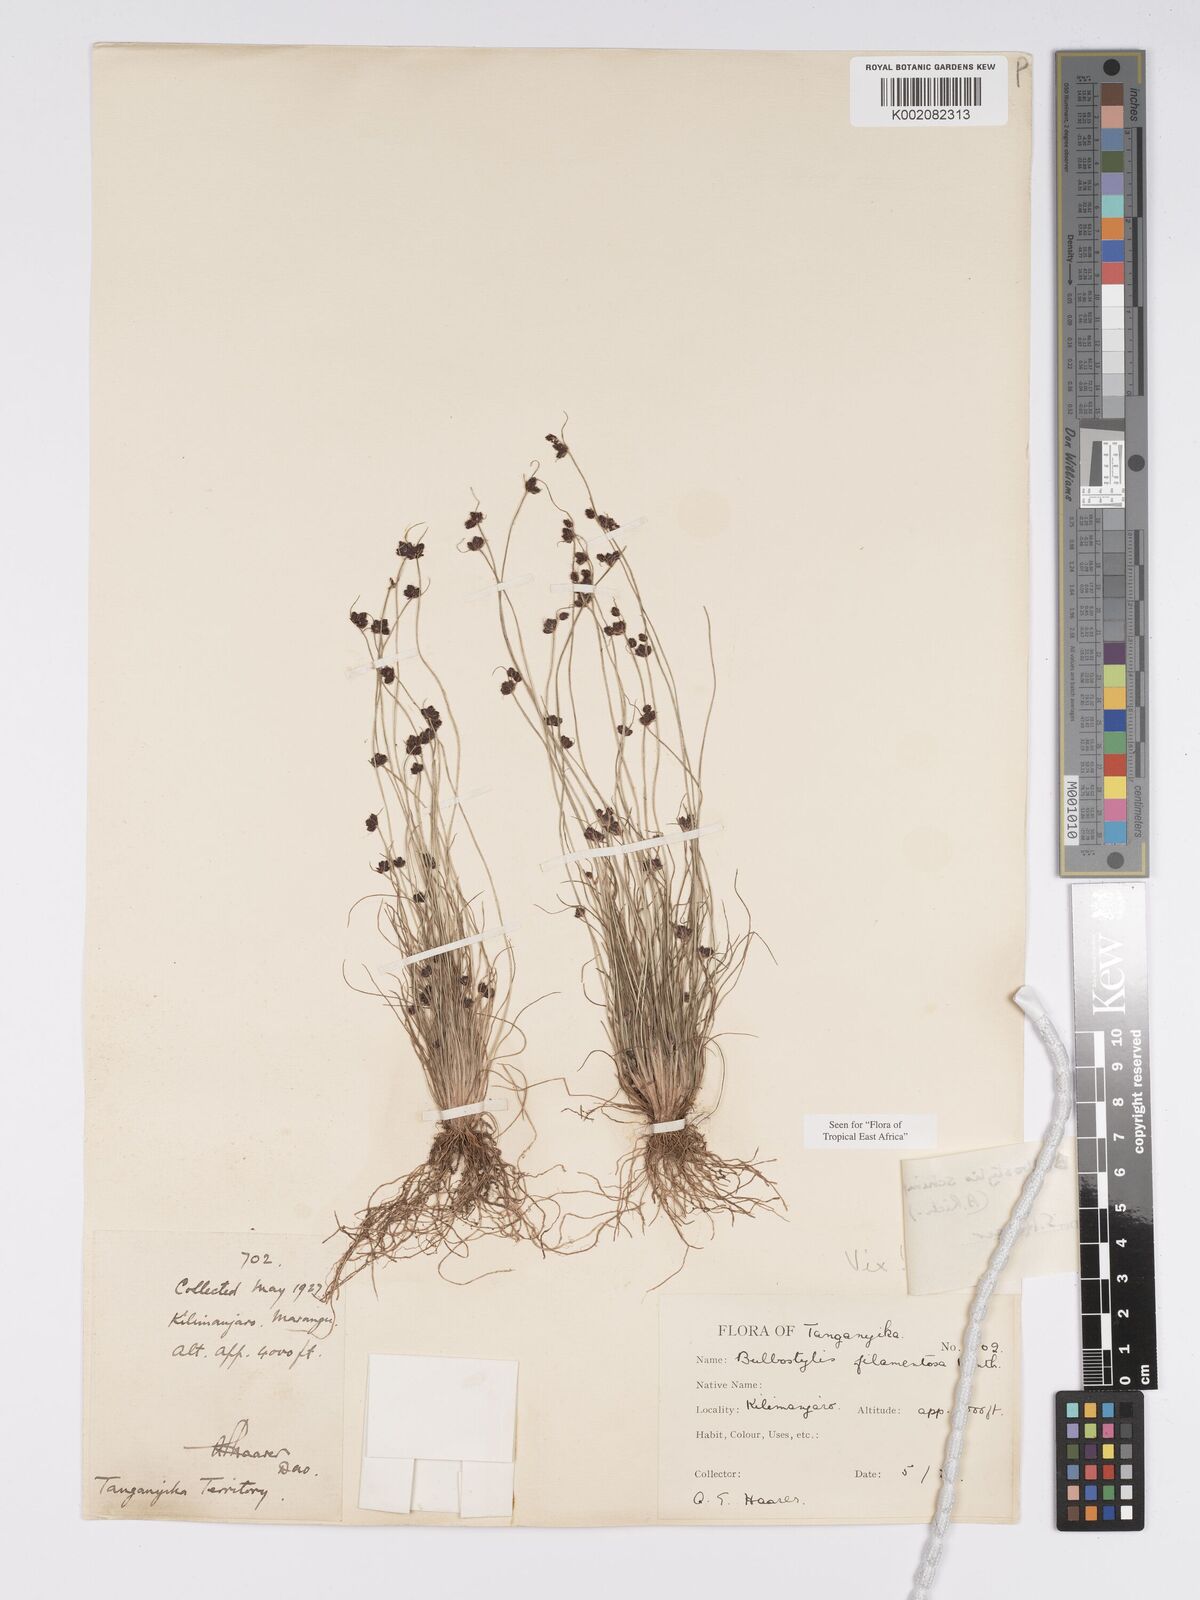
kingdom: Plantae
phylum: Tracheophyta
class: Liliopsida
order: Poales
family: Cyperaceae
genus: Bulbostylis
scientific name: Bulbostylis schimperiana
